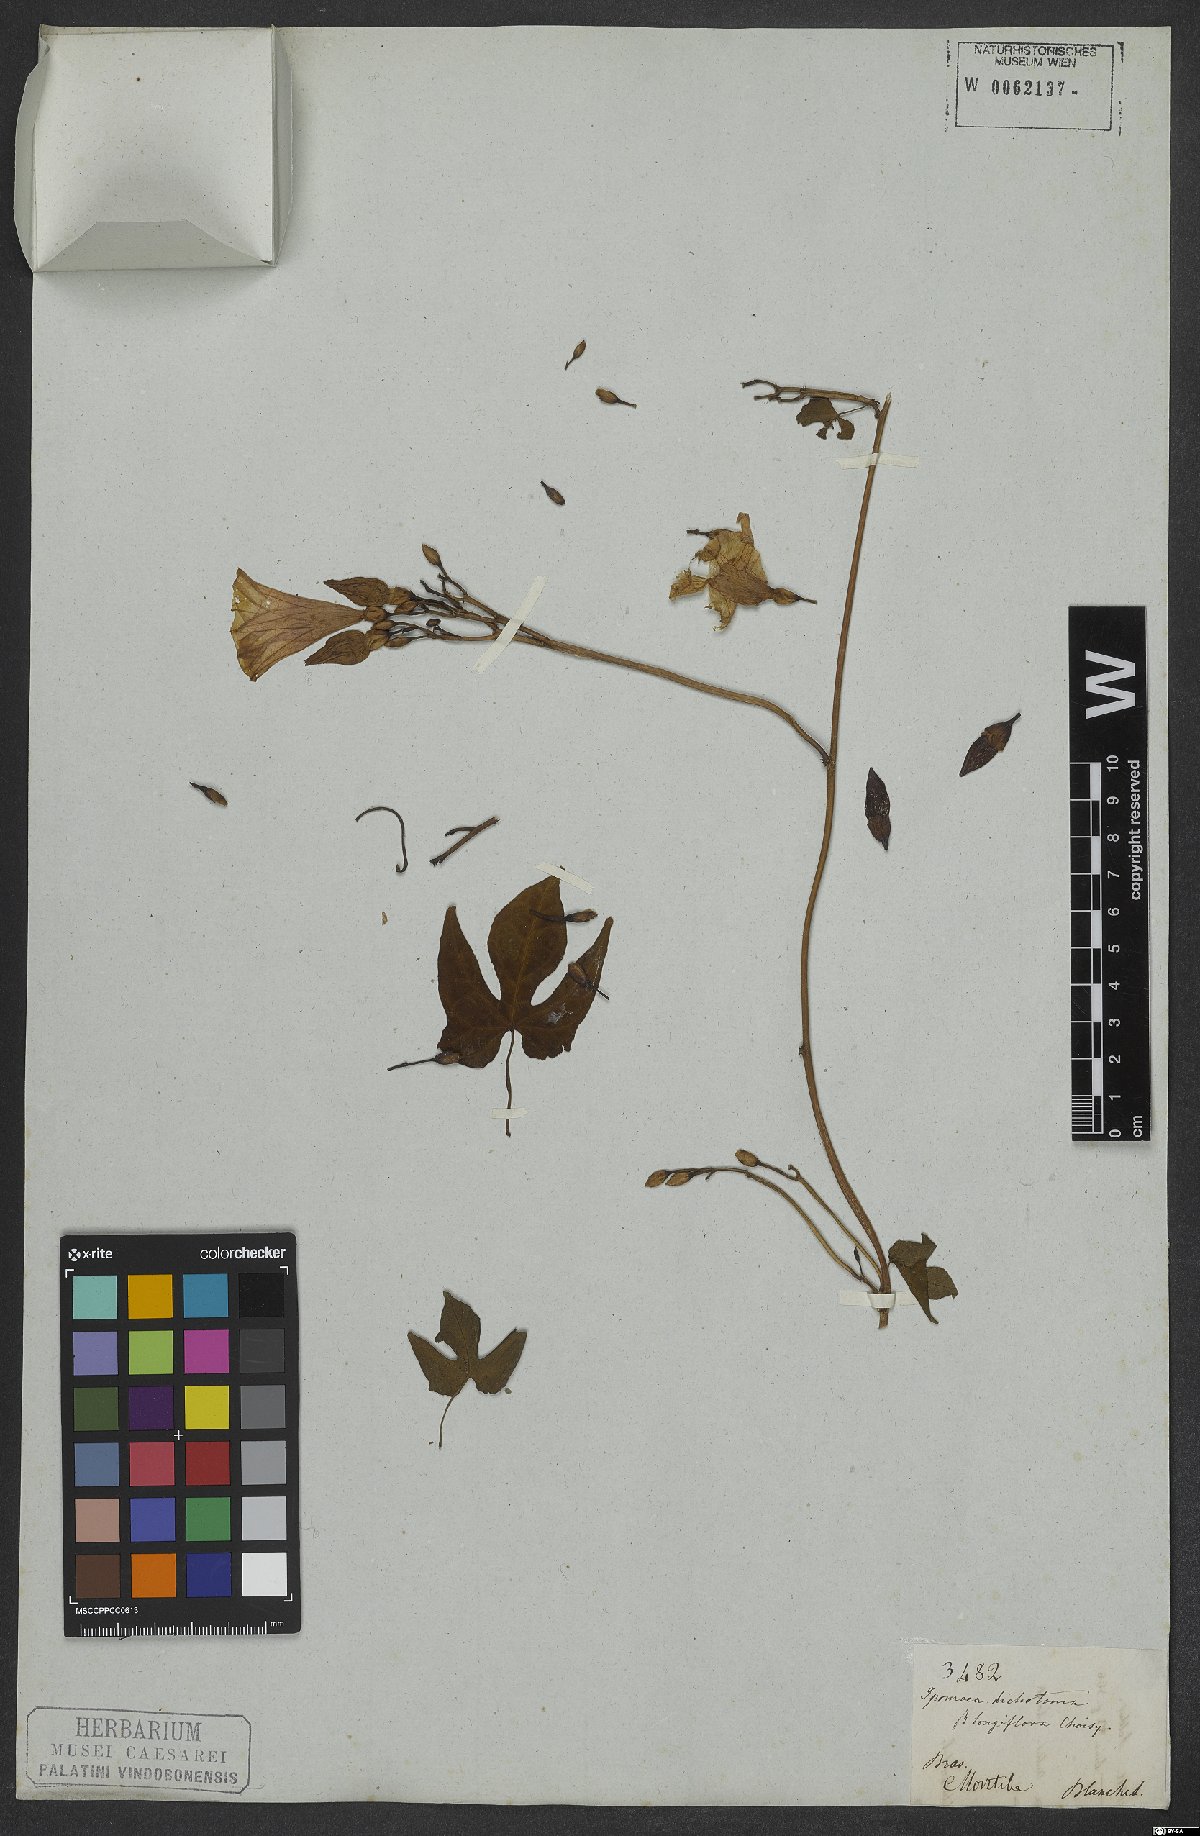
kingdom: Plantae
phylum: Tracheophyta
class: Magnoliopsida
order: Solanales
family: Convolvulaceae
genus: Ipomoea
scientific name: Ipomoea ramosissima
